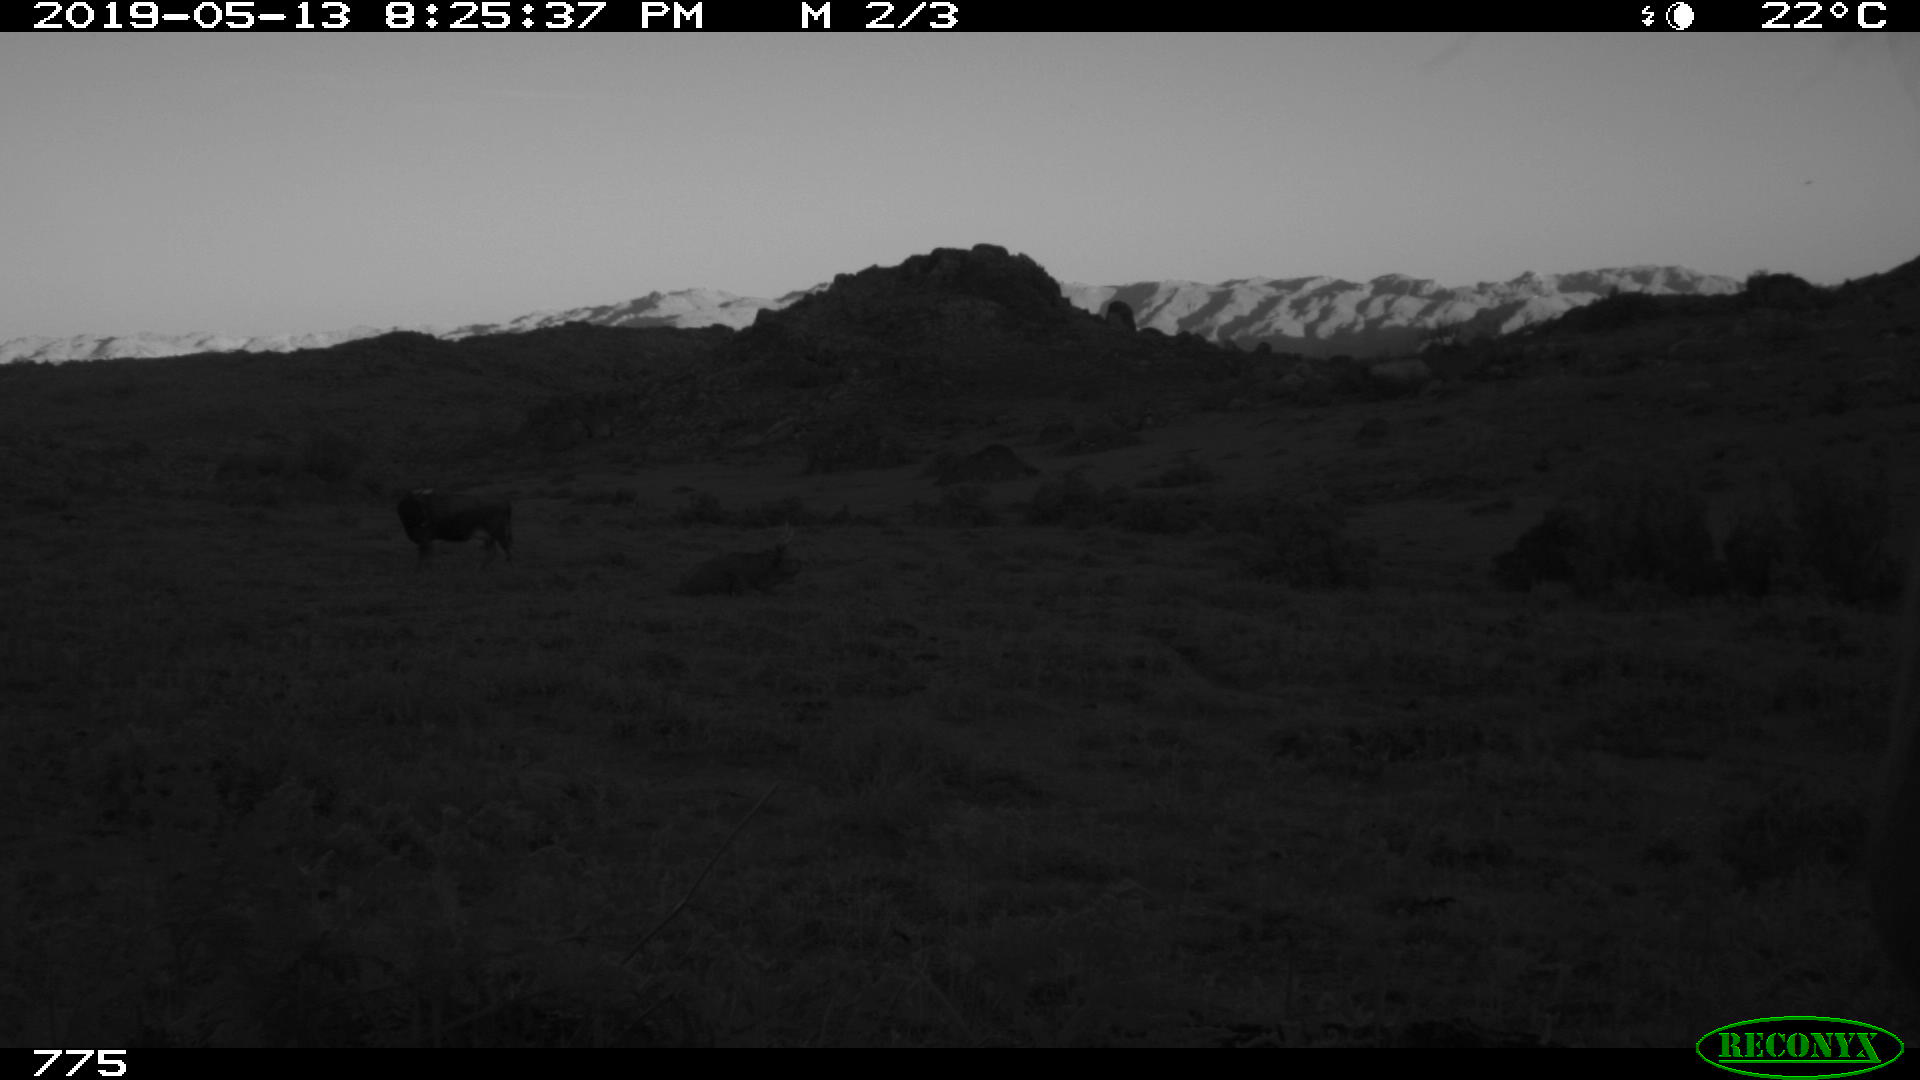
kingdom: Animalia
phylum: Chordata
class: Mammalia
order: Artiodactyla
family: Bovidae
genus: Bos
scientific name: Bos taurus
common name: Domesticated cattle
